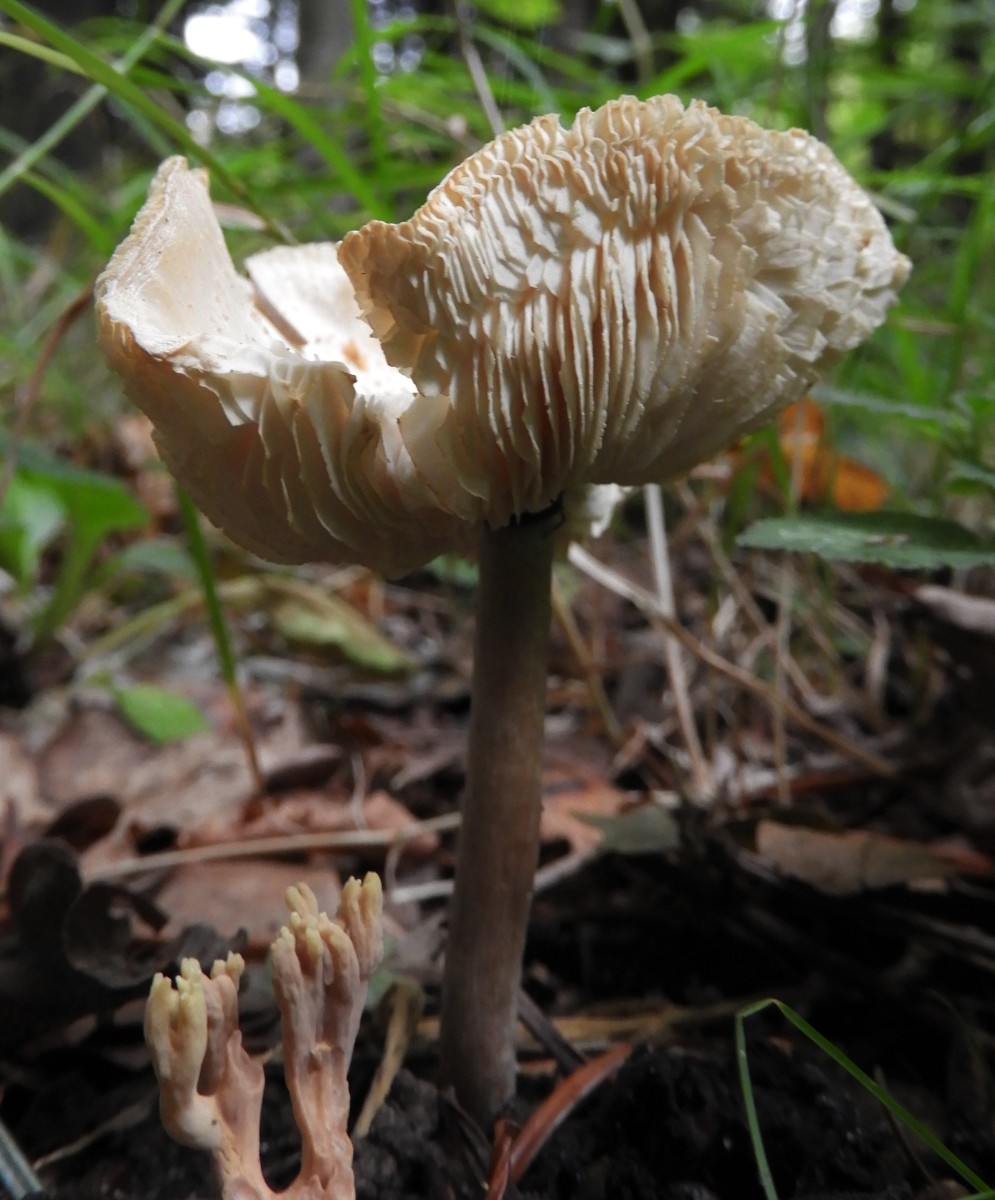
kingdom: Fungi
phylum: Basidiomycota
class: Agaricomycetes
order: Agaricales
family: Agaricaceae
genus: Lepiota
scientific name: Lepiota cristata
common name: stinkende parasolhat
